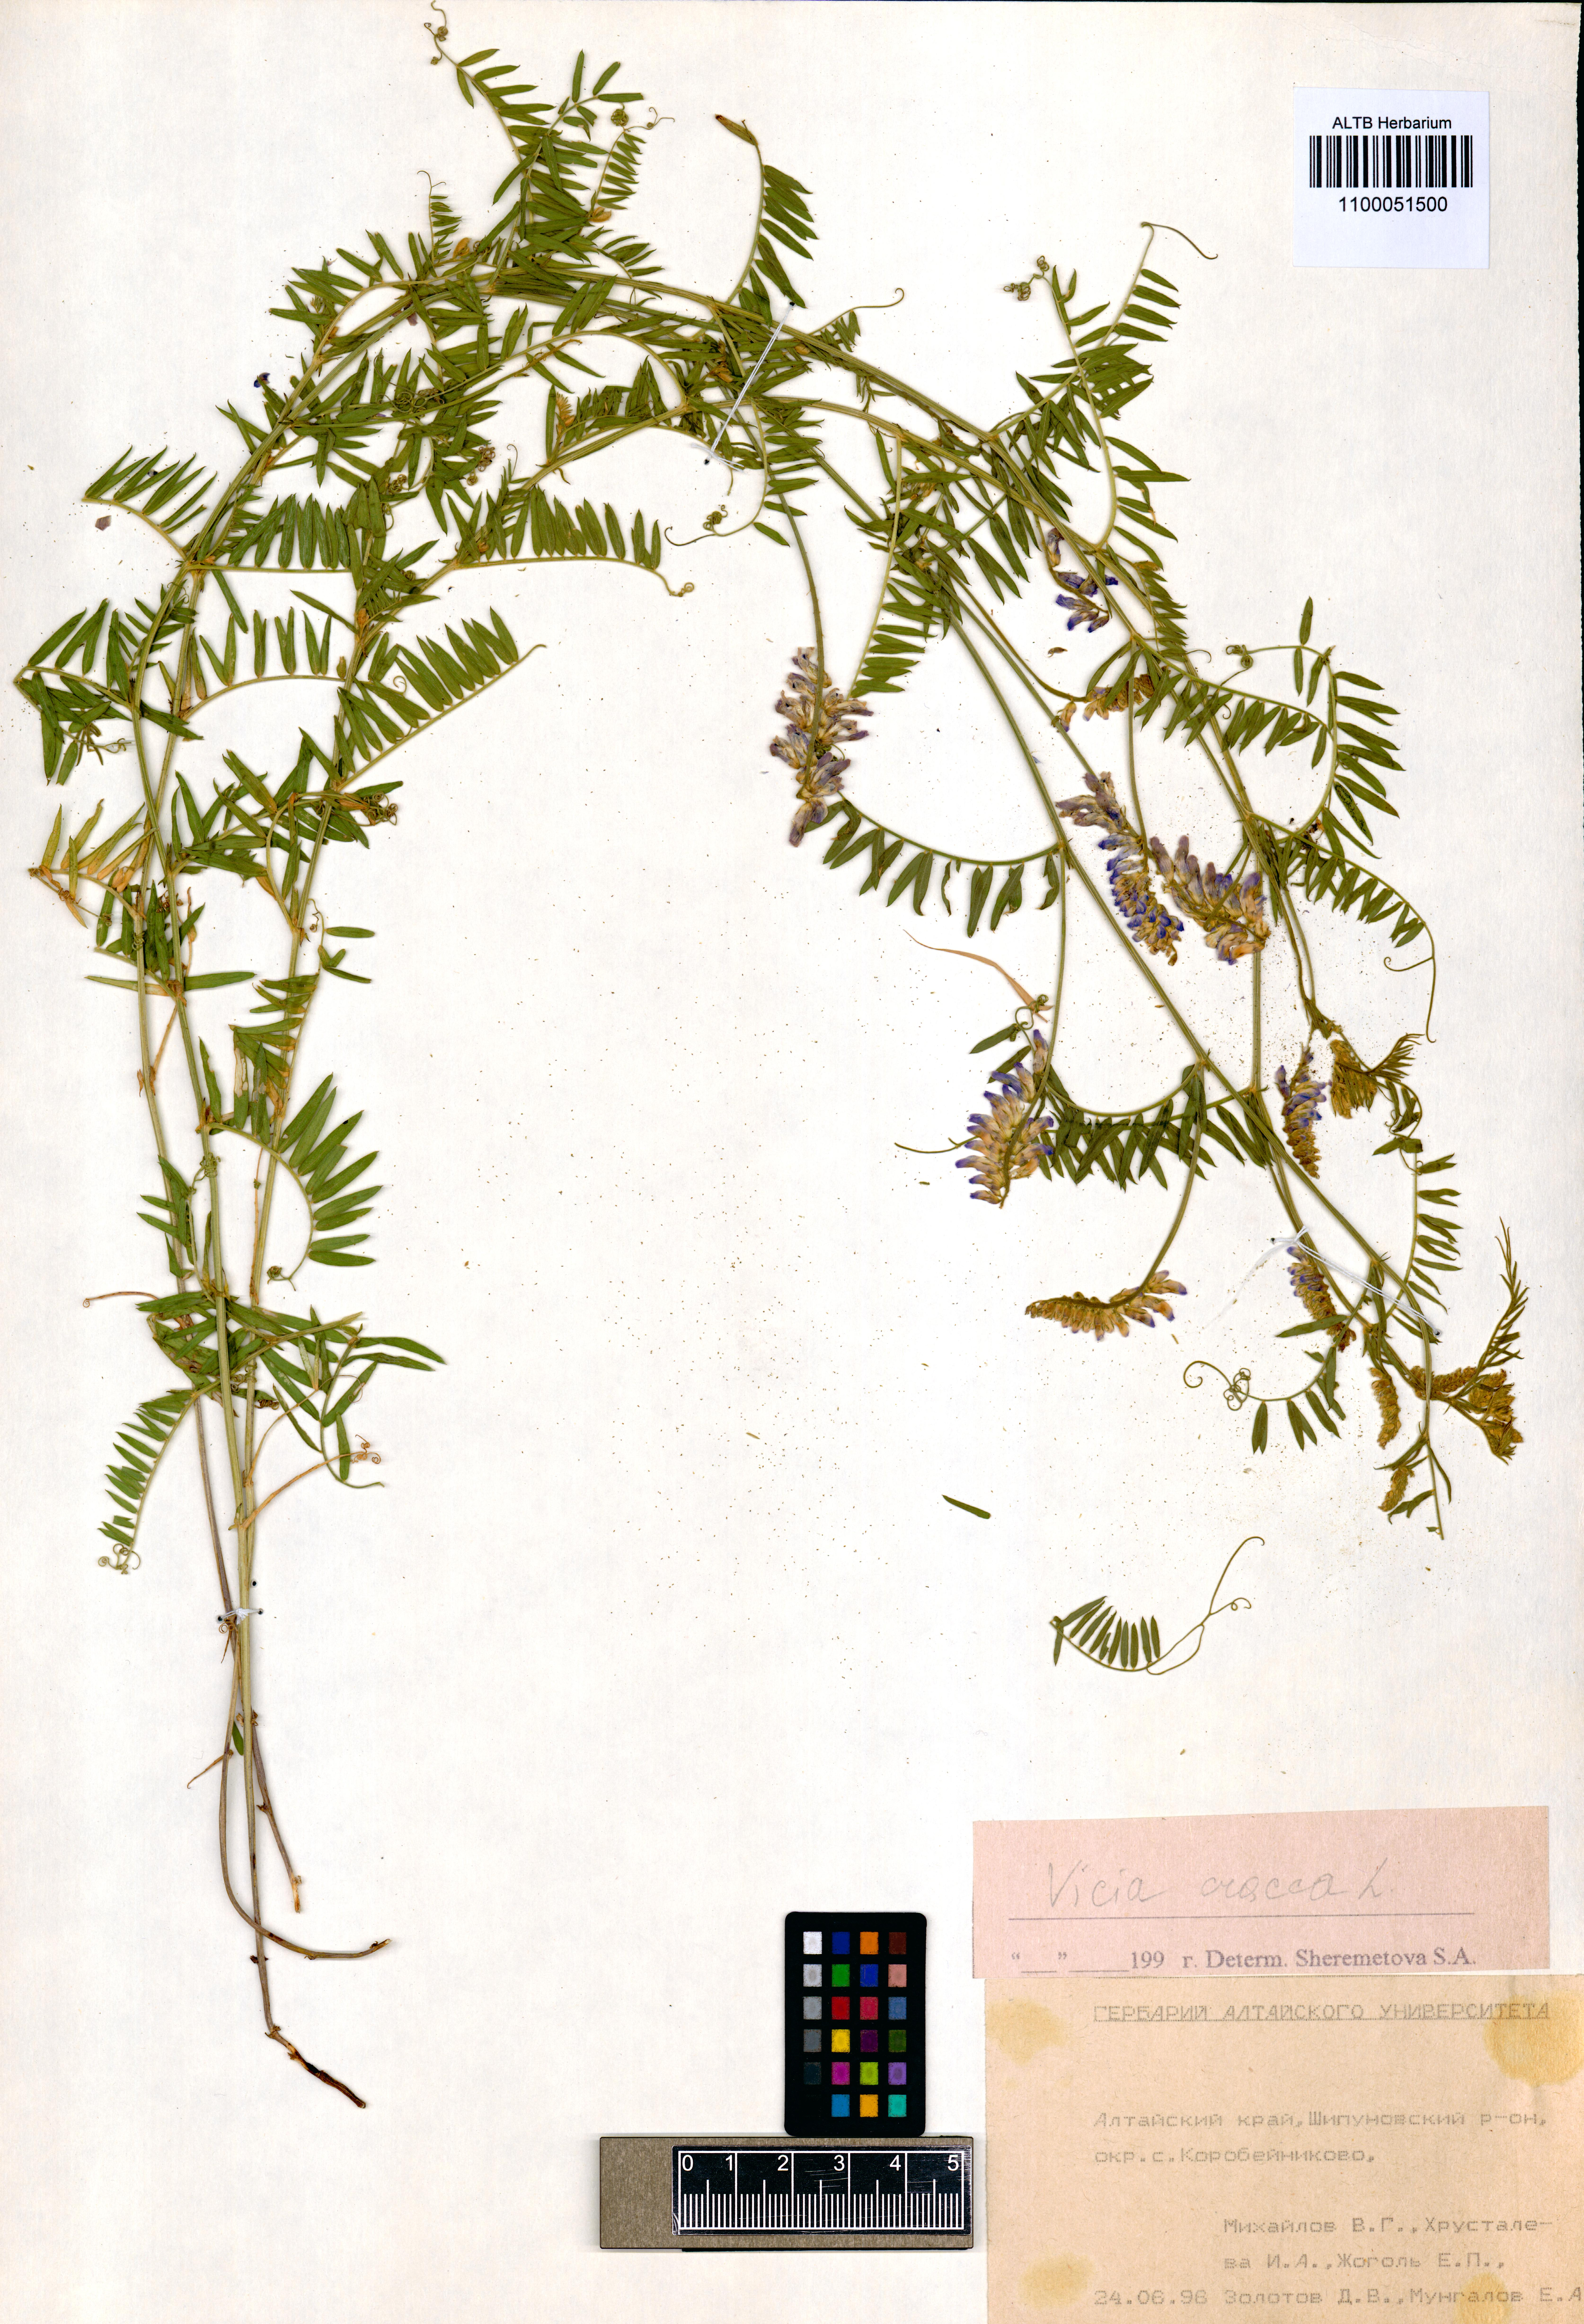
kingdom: Plantae
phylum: Tracheophyta
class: Magnoliopsida
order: Fabales
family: Fabaceae
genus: Vicia
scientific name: Vicia cracca
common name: Bird vetch
